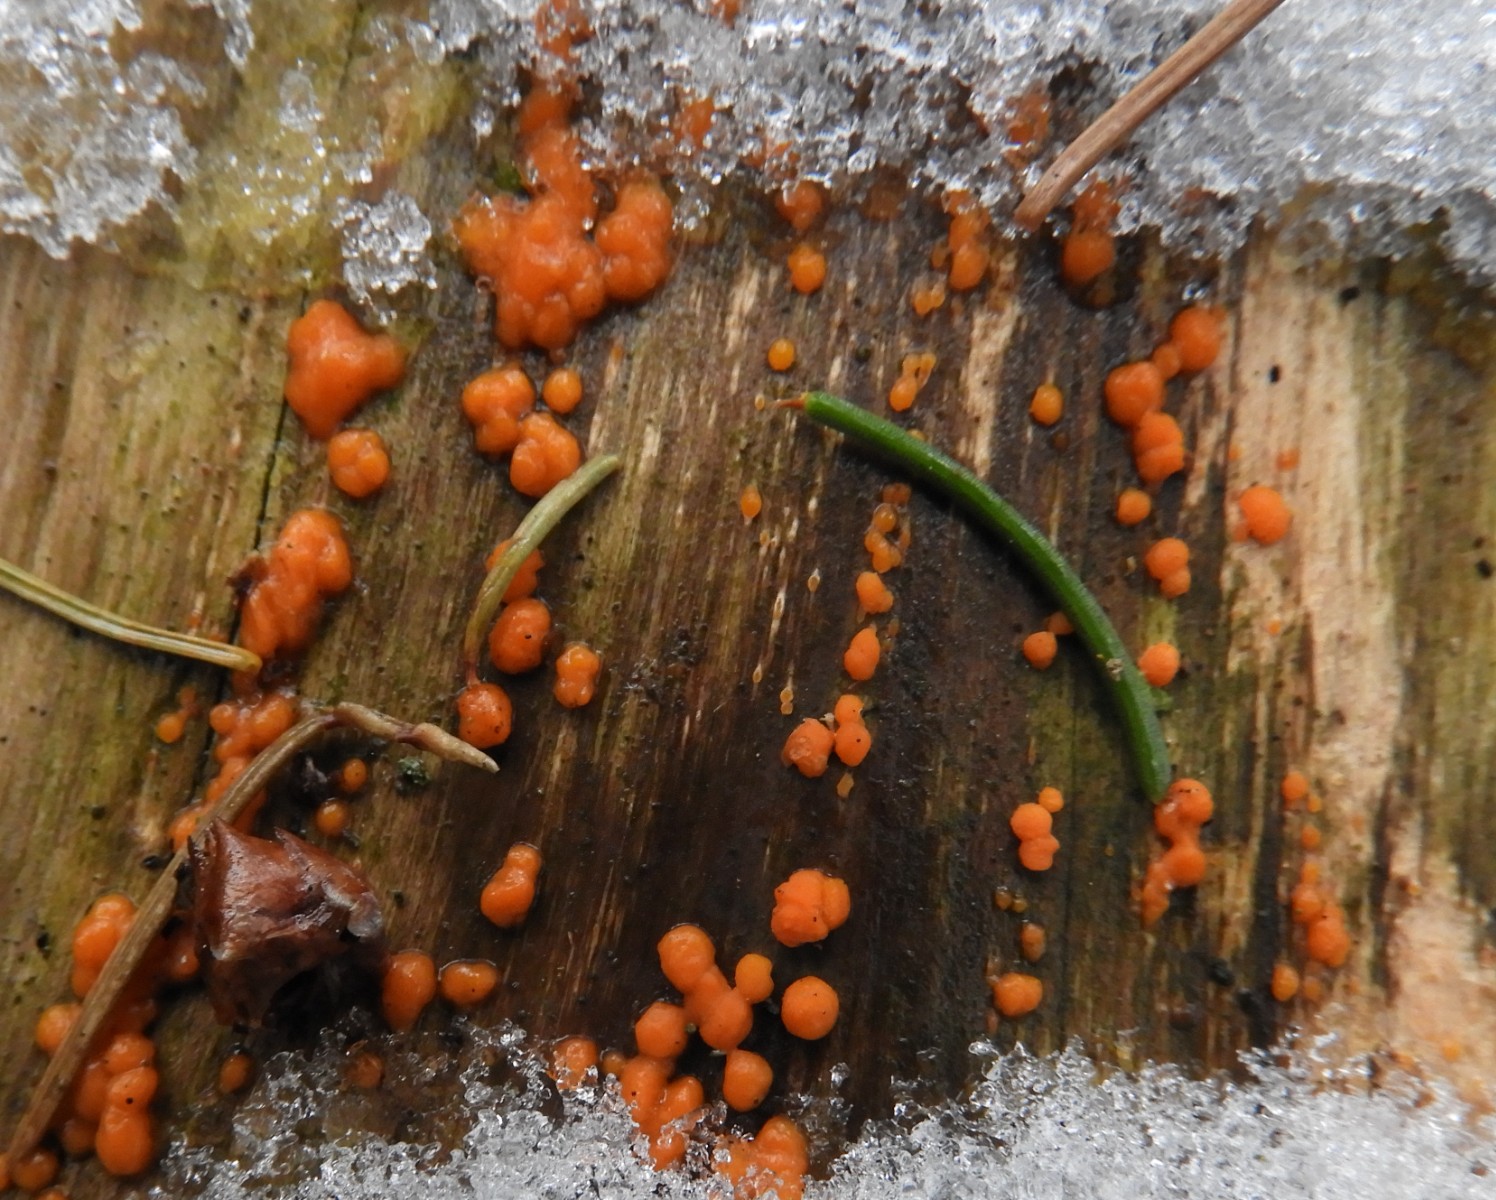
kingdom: Fungi
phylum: Basidiomycota
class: Dacrymycetes
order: Dacrymycetales
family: Dacrymycetaceae
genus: Dacrymyces
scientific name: Dacrymyces stillatus
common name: almindelig tåresvamp
